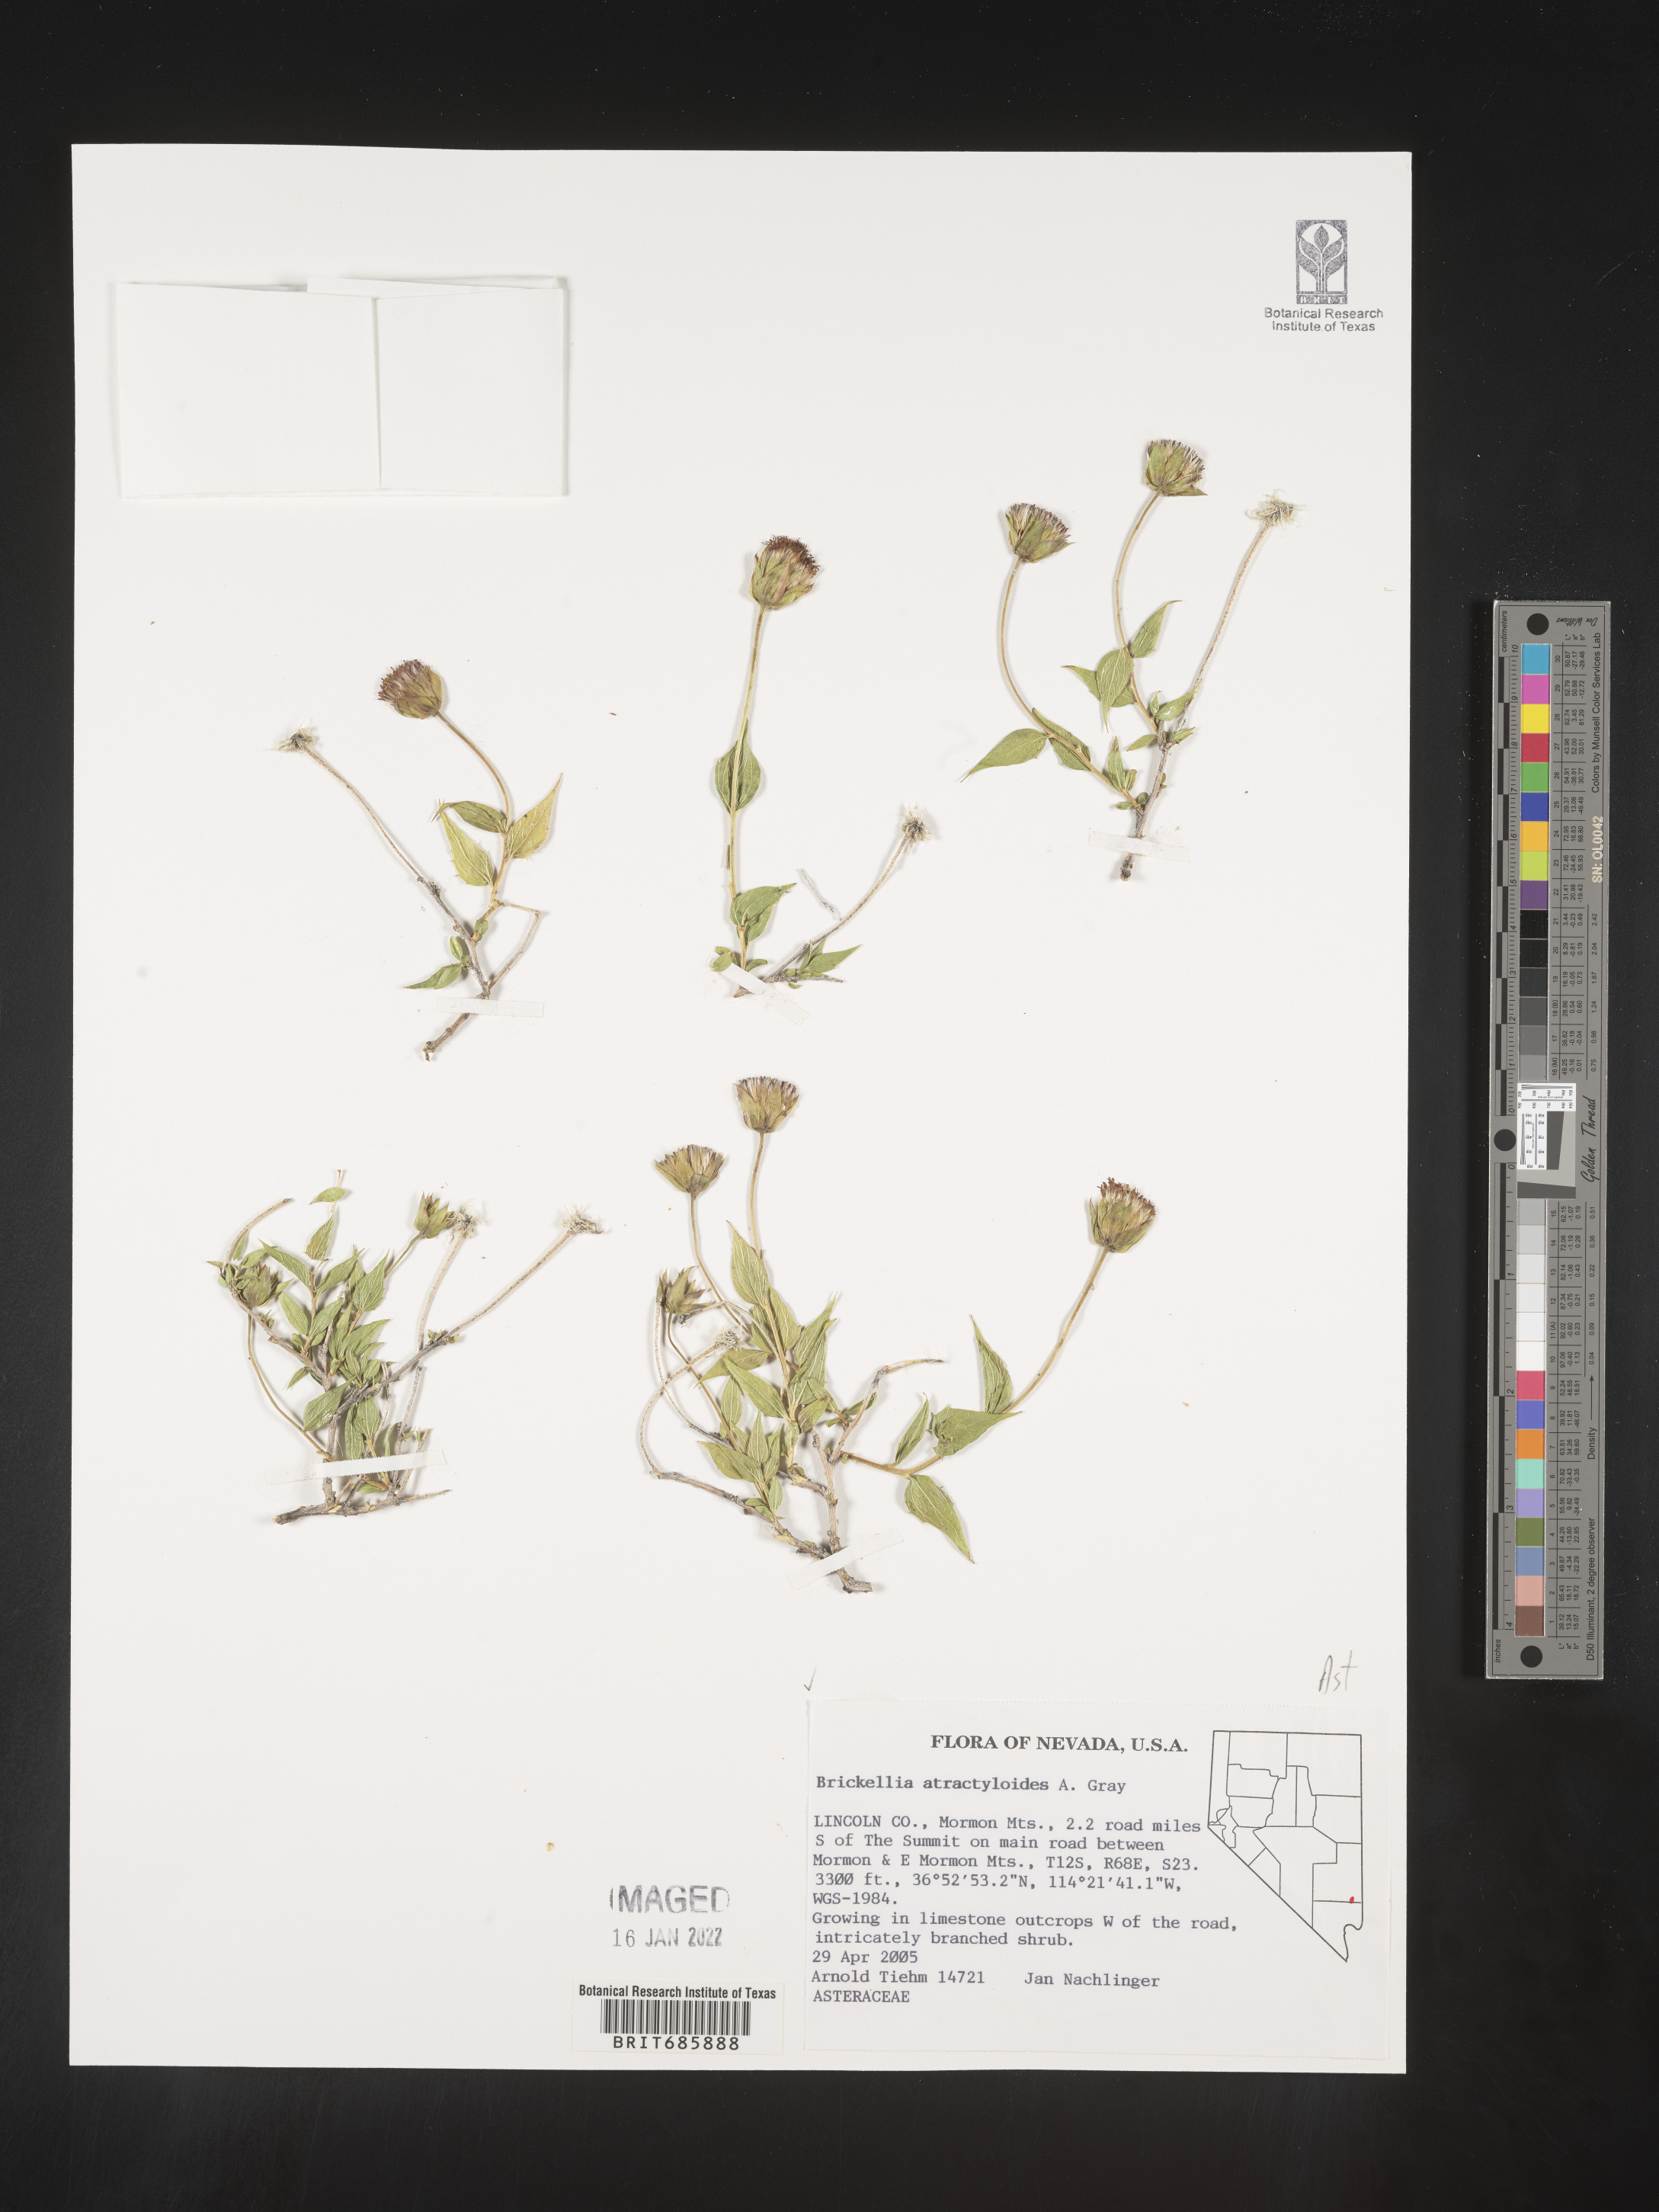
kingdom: Plantae
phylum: Tracheophyta
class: Magnoliopsida
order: Asterales
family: Asteraceae
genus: Brickellia
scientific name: Brickellia atractyloides
